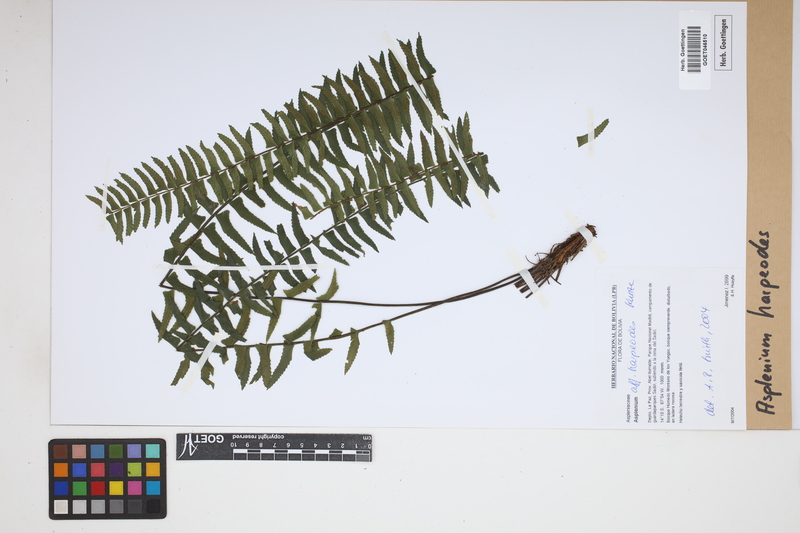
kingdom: Plantae
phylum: Tracheophyta
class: Polypodiopsida
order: Polypodiales
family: Aspleniaceae
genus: Asplenium
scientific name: Asplenium harpeodes
